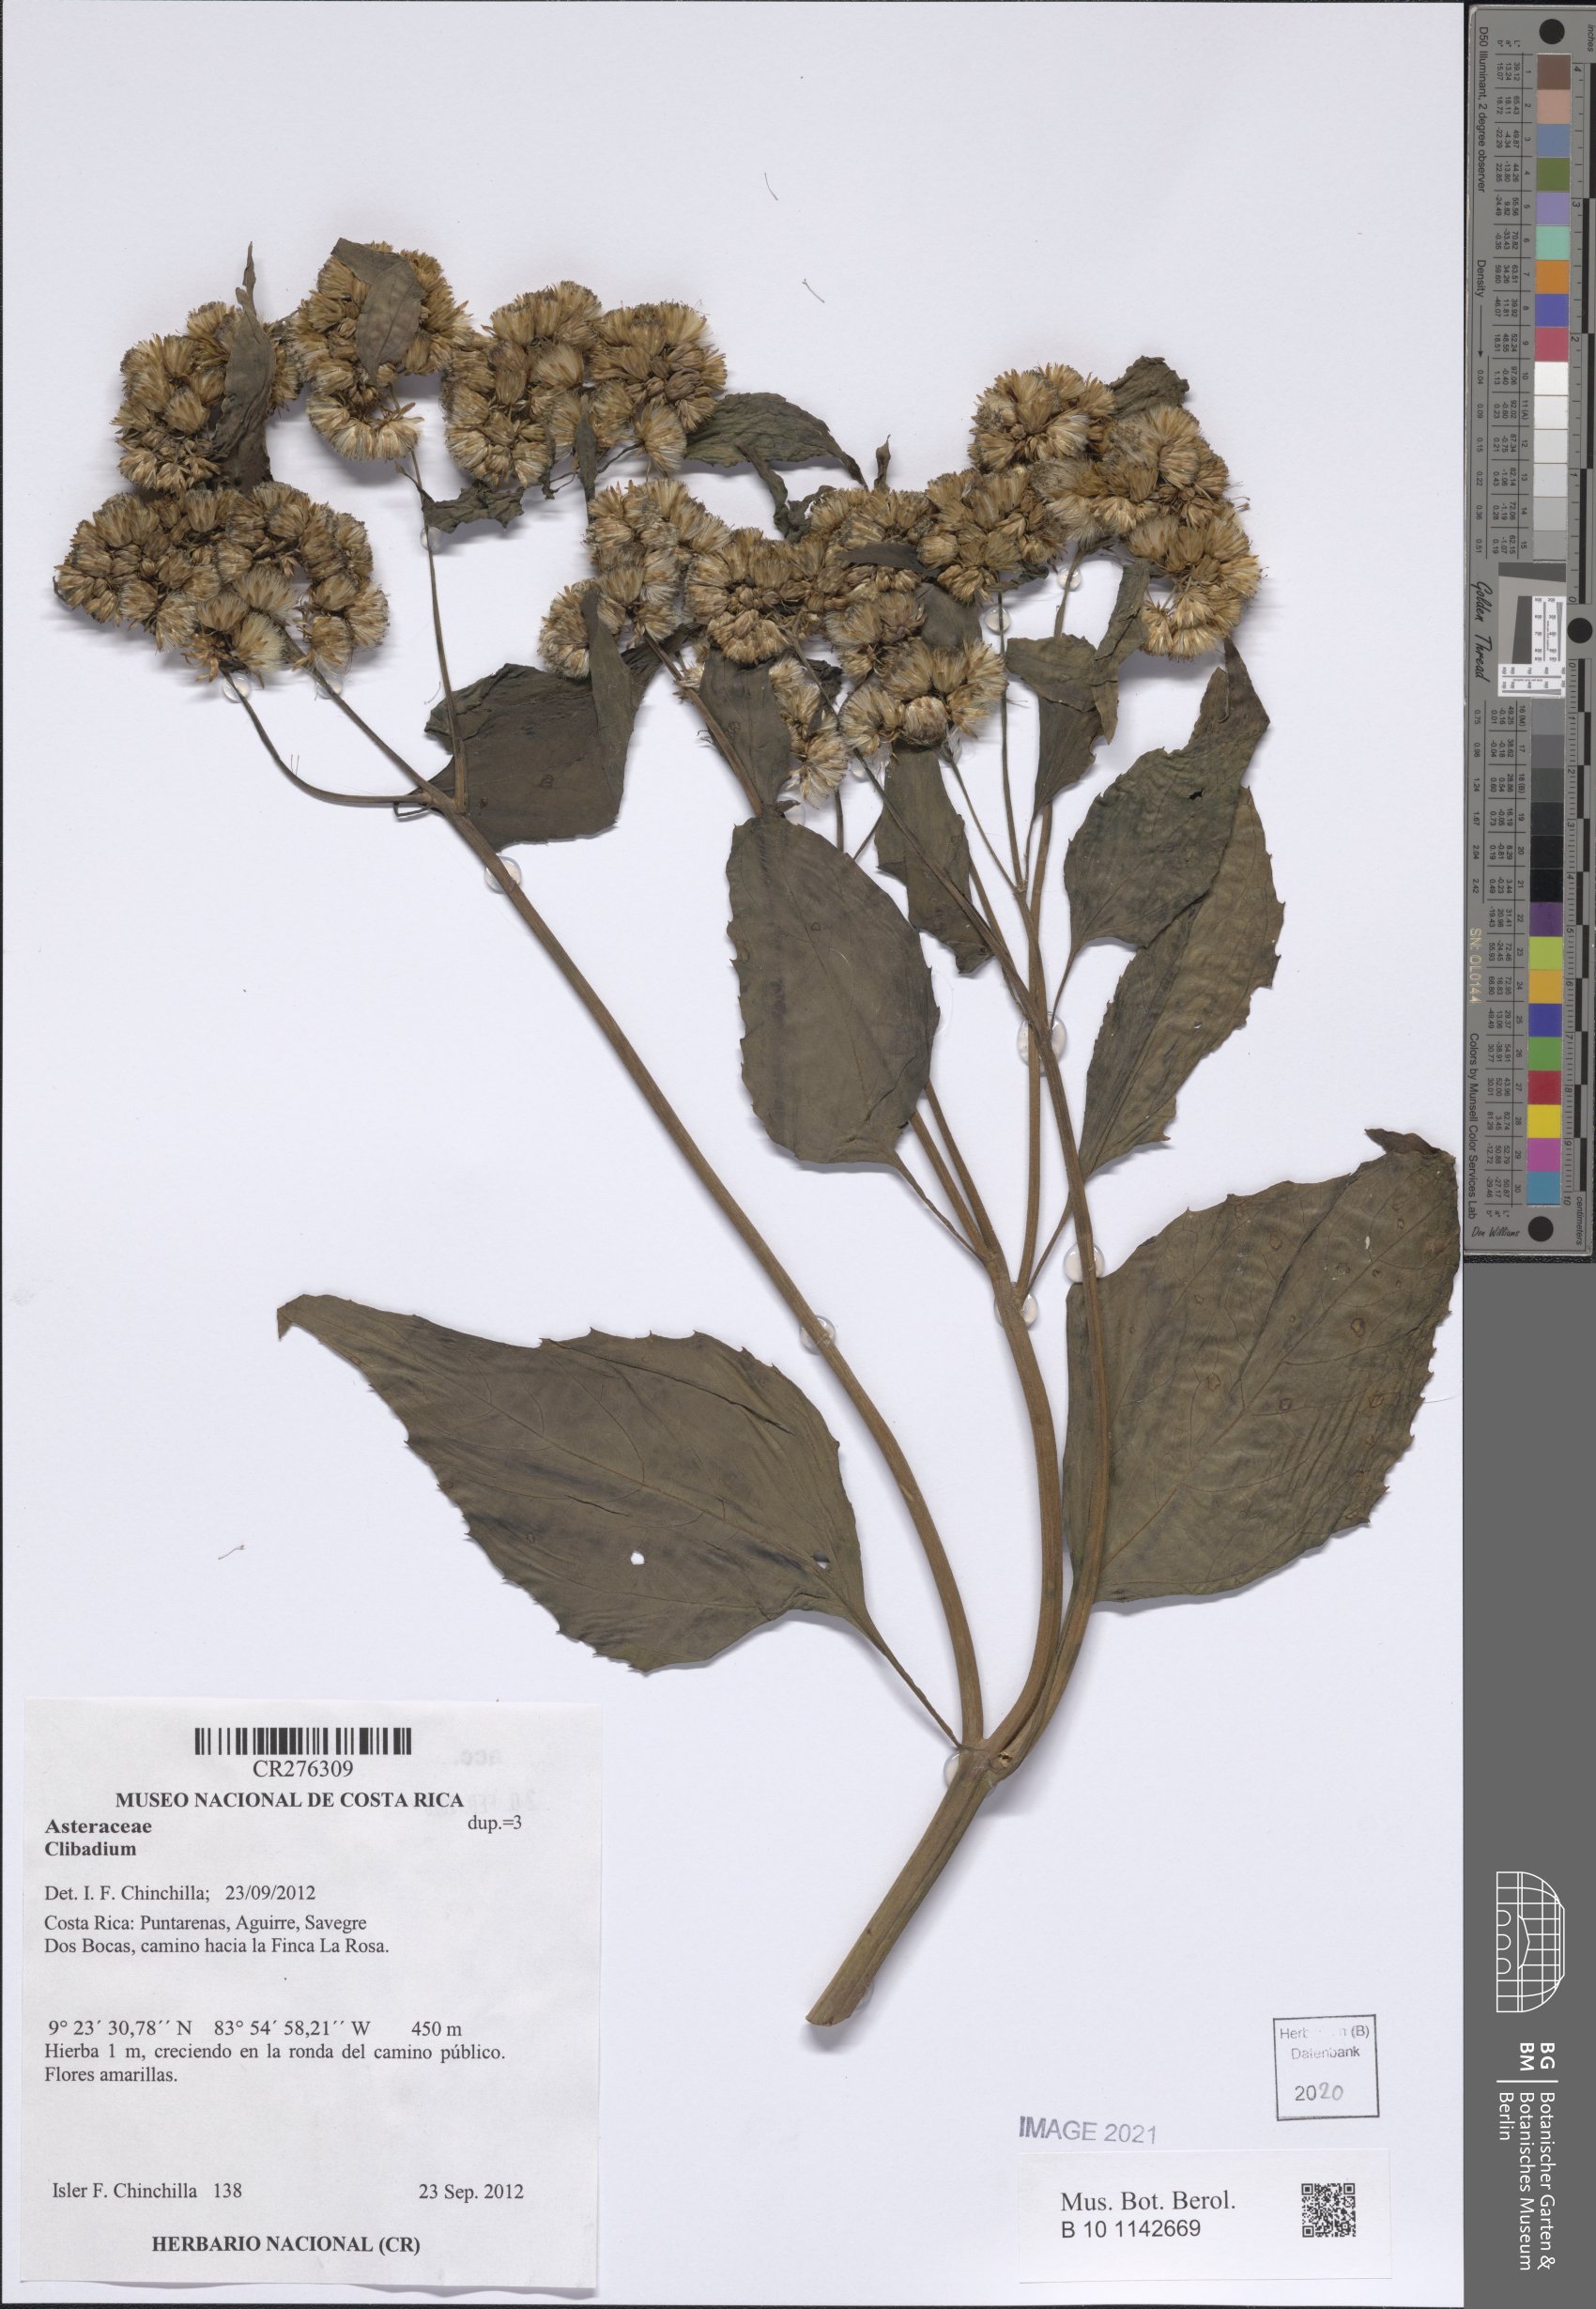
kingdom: Plantae
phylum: Tracheophyta
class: Magnoliopsida
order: Asterales
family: Asteraceae
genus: Clibadium
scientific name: Clibadium
